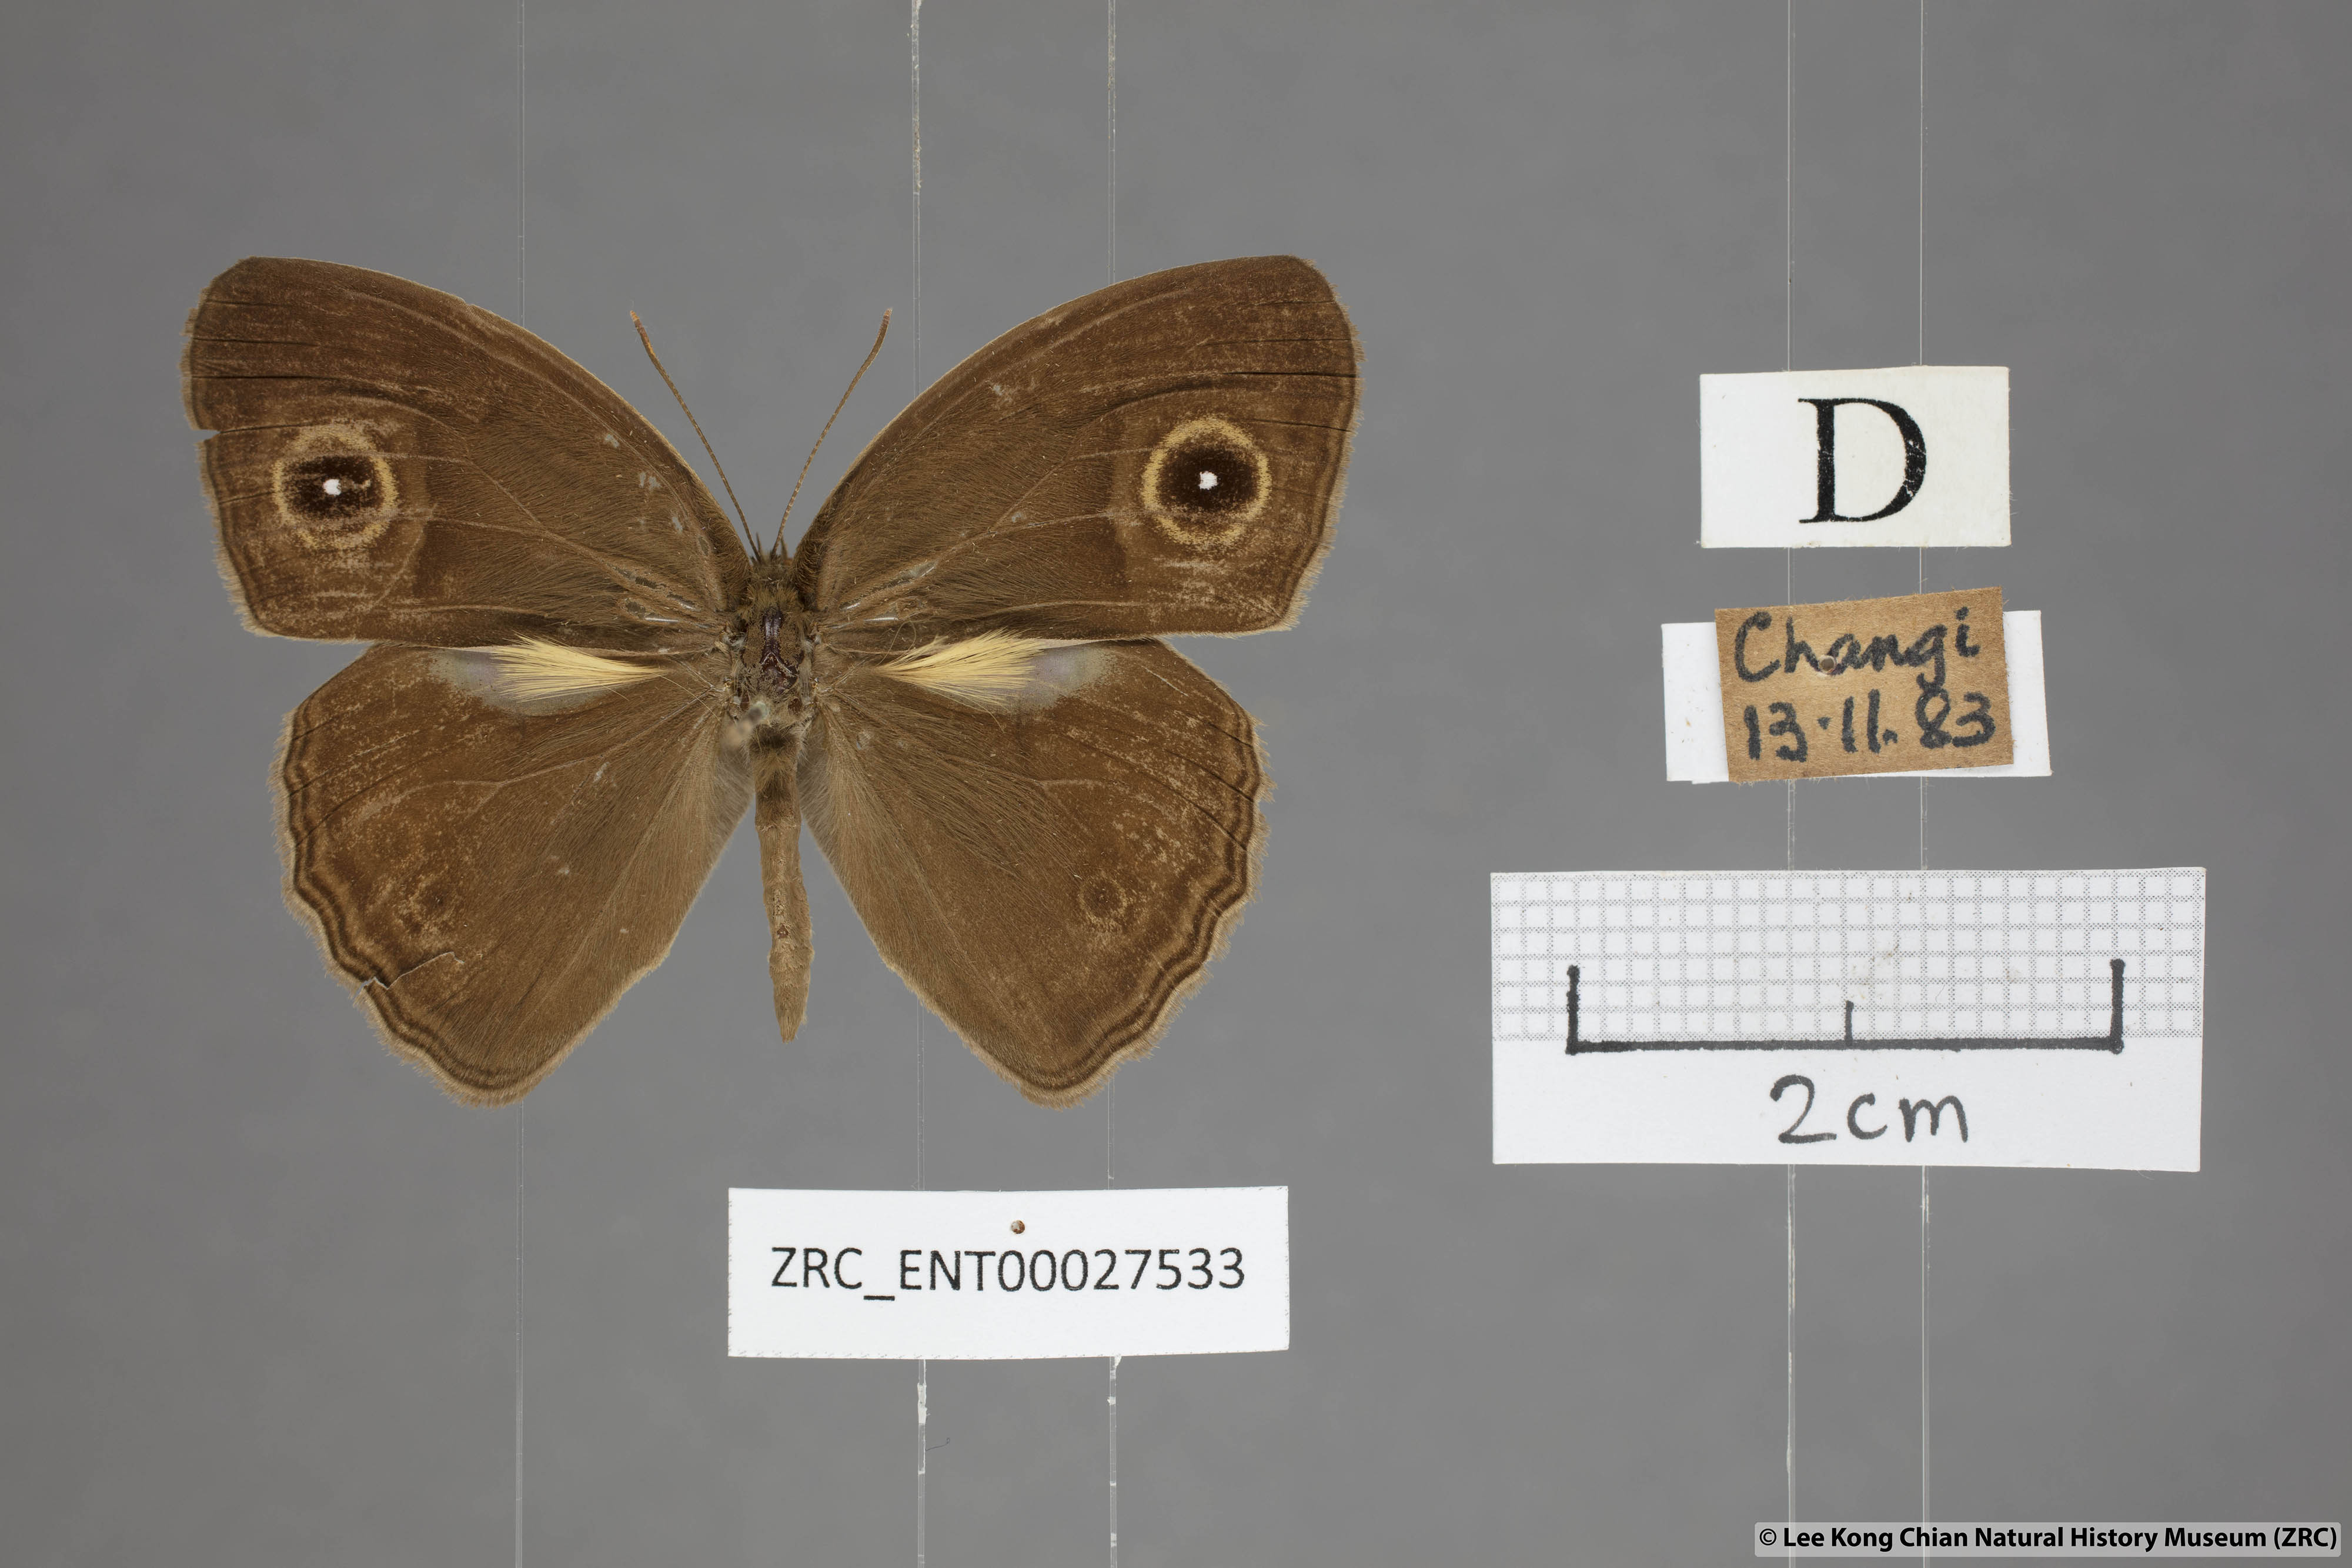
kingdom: Animalia
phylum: Arthropoda
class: Insecta
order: Lepidoptera
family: Nymphalidae
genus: Mycalesis
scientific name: Mycalesis visala
